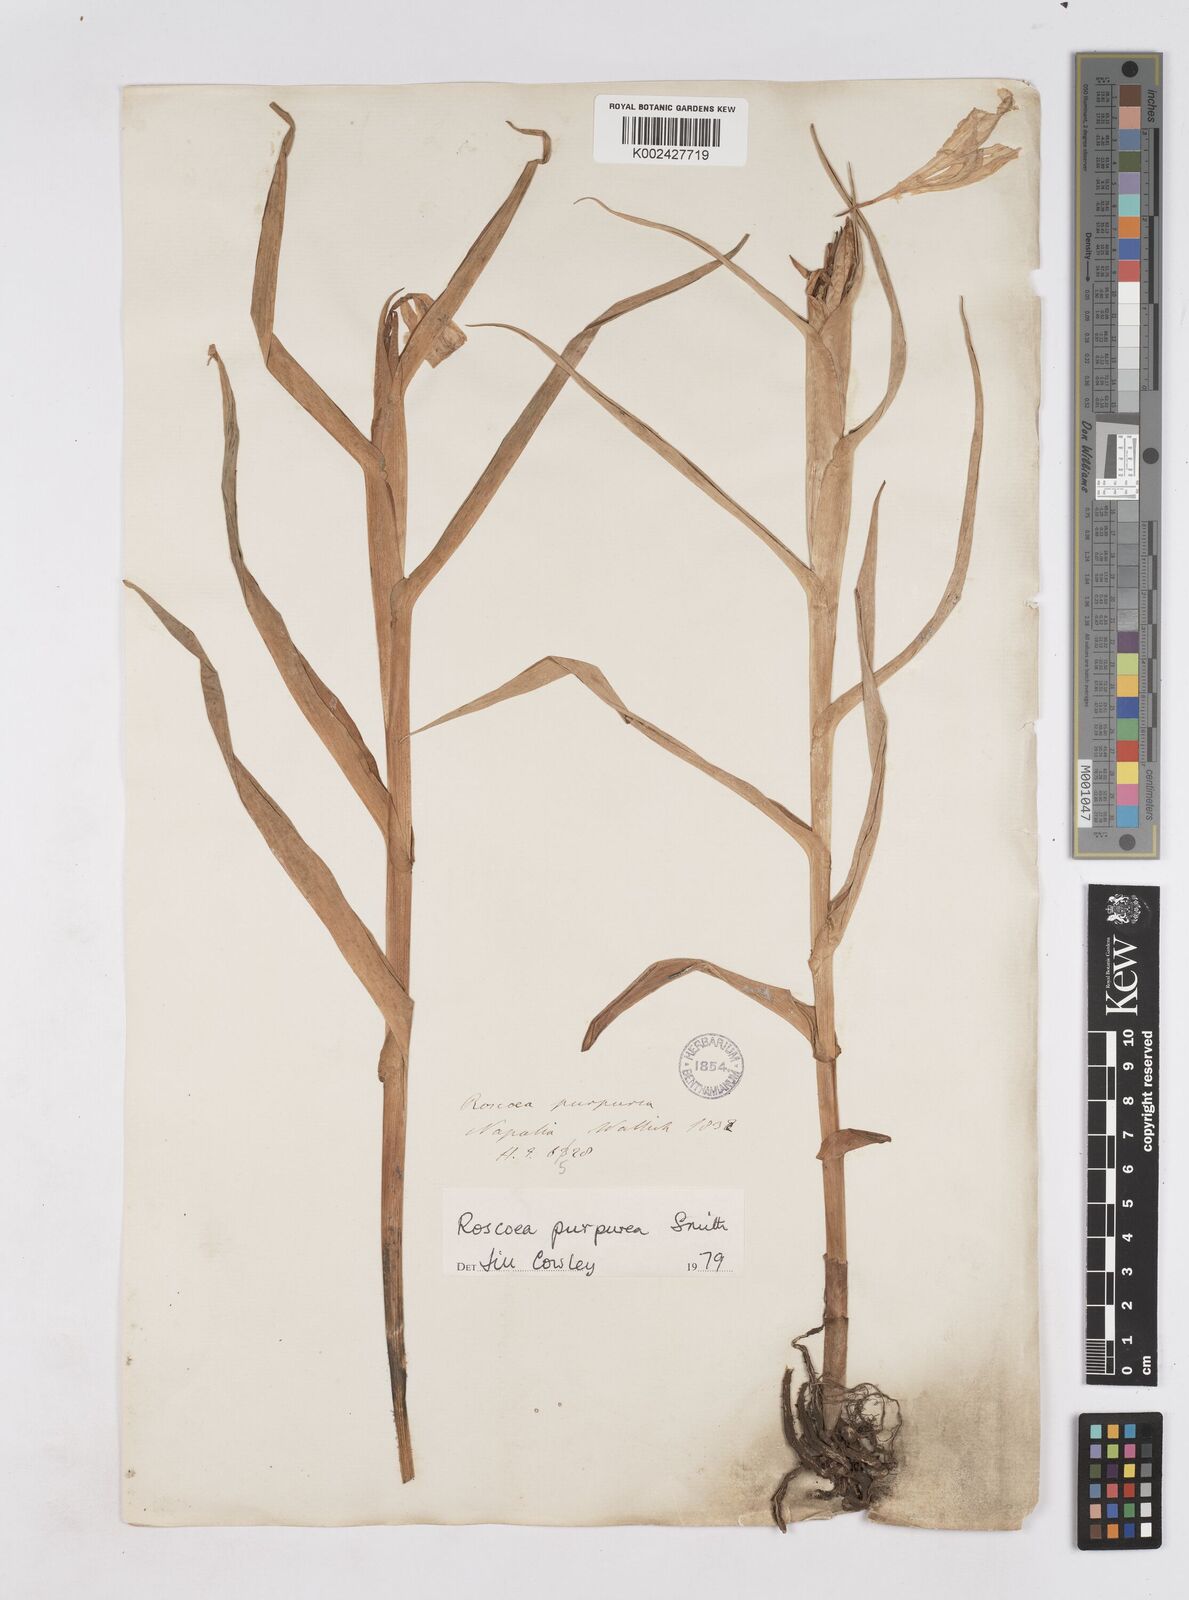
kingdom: Plantae
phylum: Tracheophyta
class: Liliopsida
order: Zingiberales
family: Zingiberaceae
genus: Roscoea
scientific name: Roscoea purpurea
